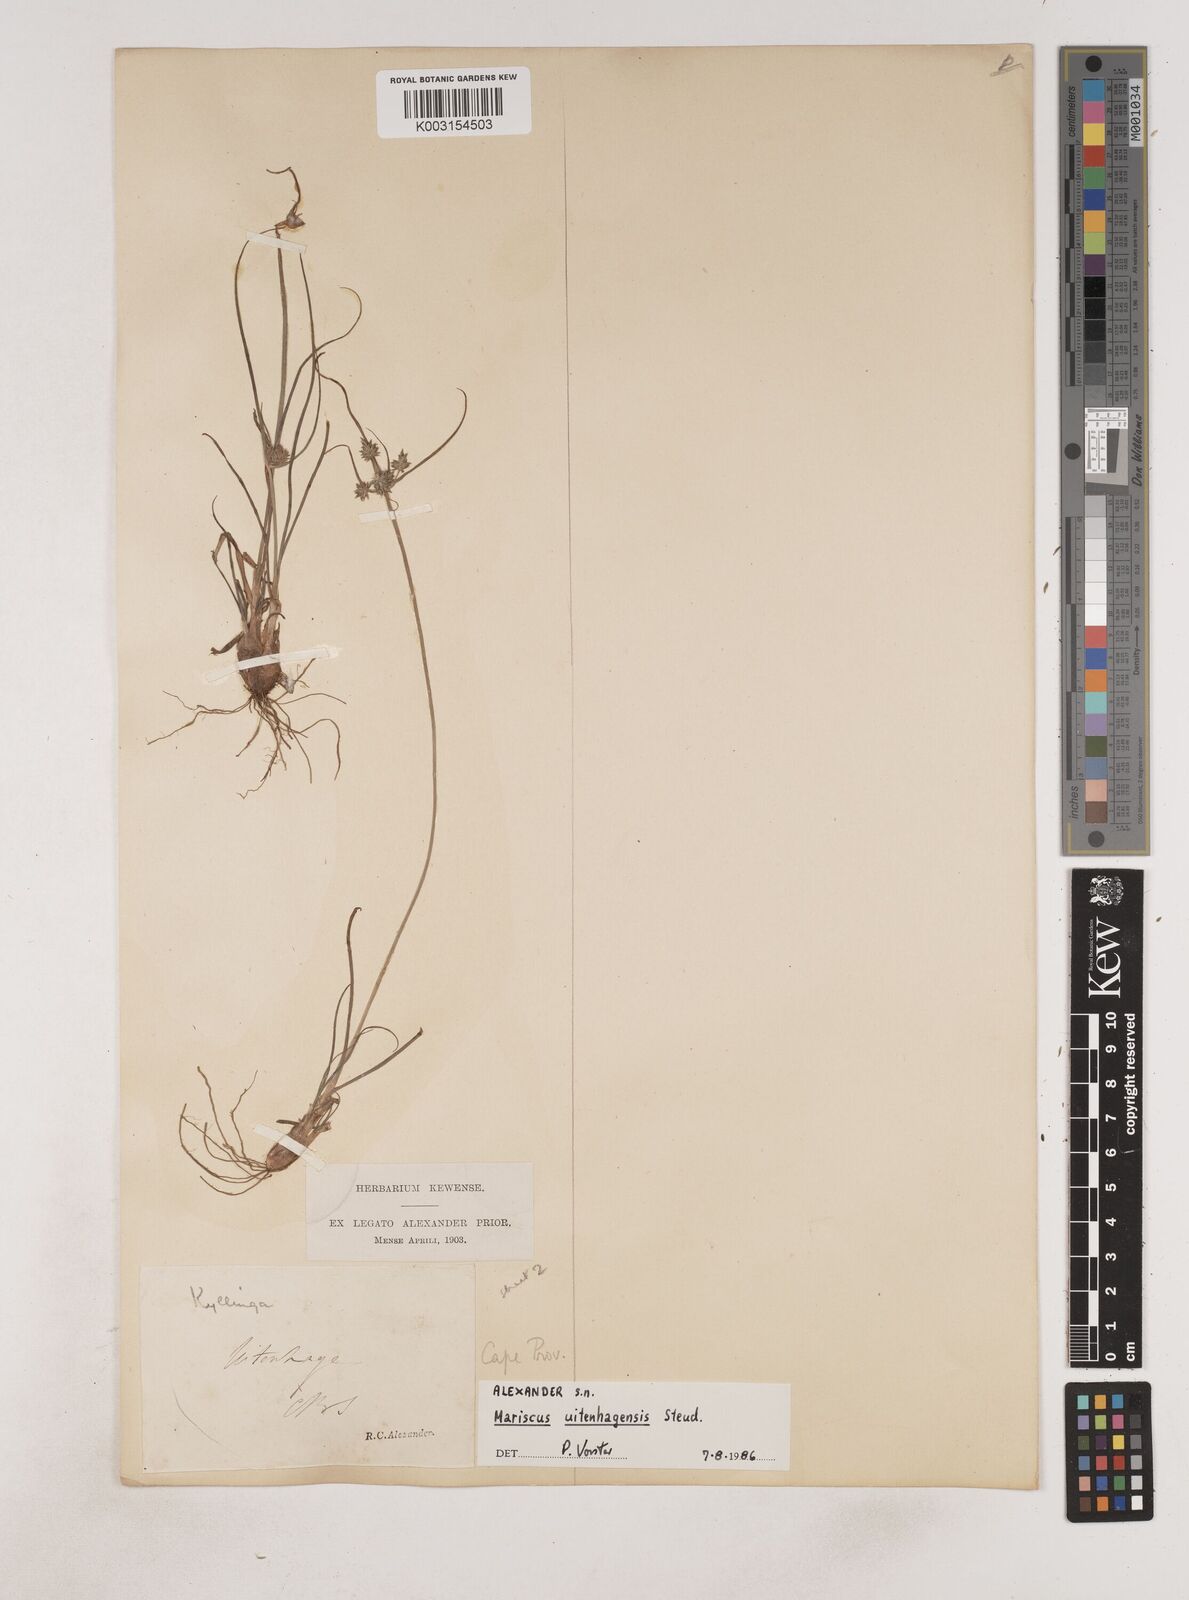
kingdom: Plantae
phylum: Tracheophyta
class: Liliopsida
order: Poales
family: Cyperaceae
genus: Cyperus
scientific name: Cyperus capensis
